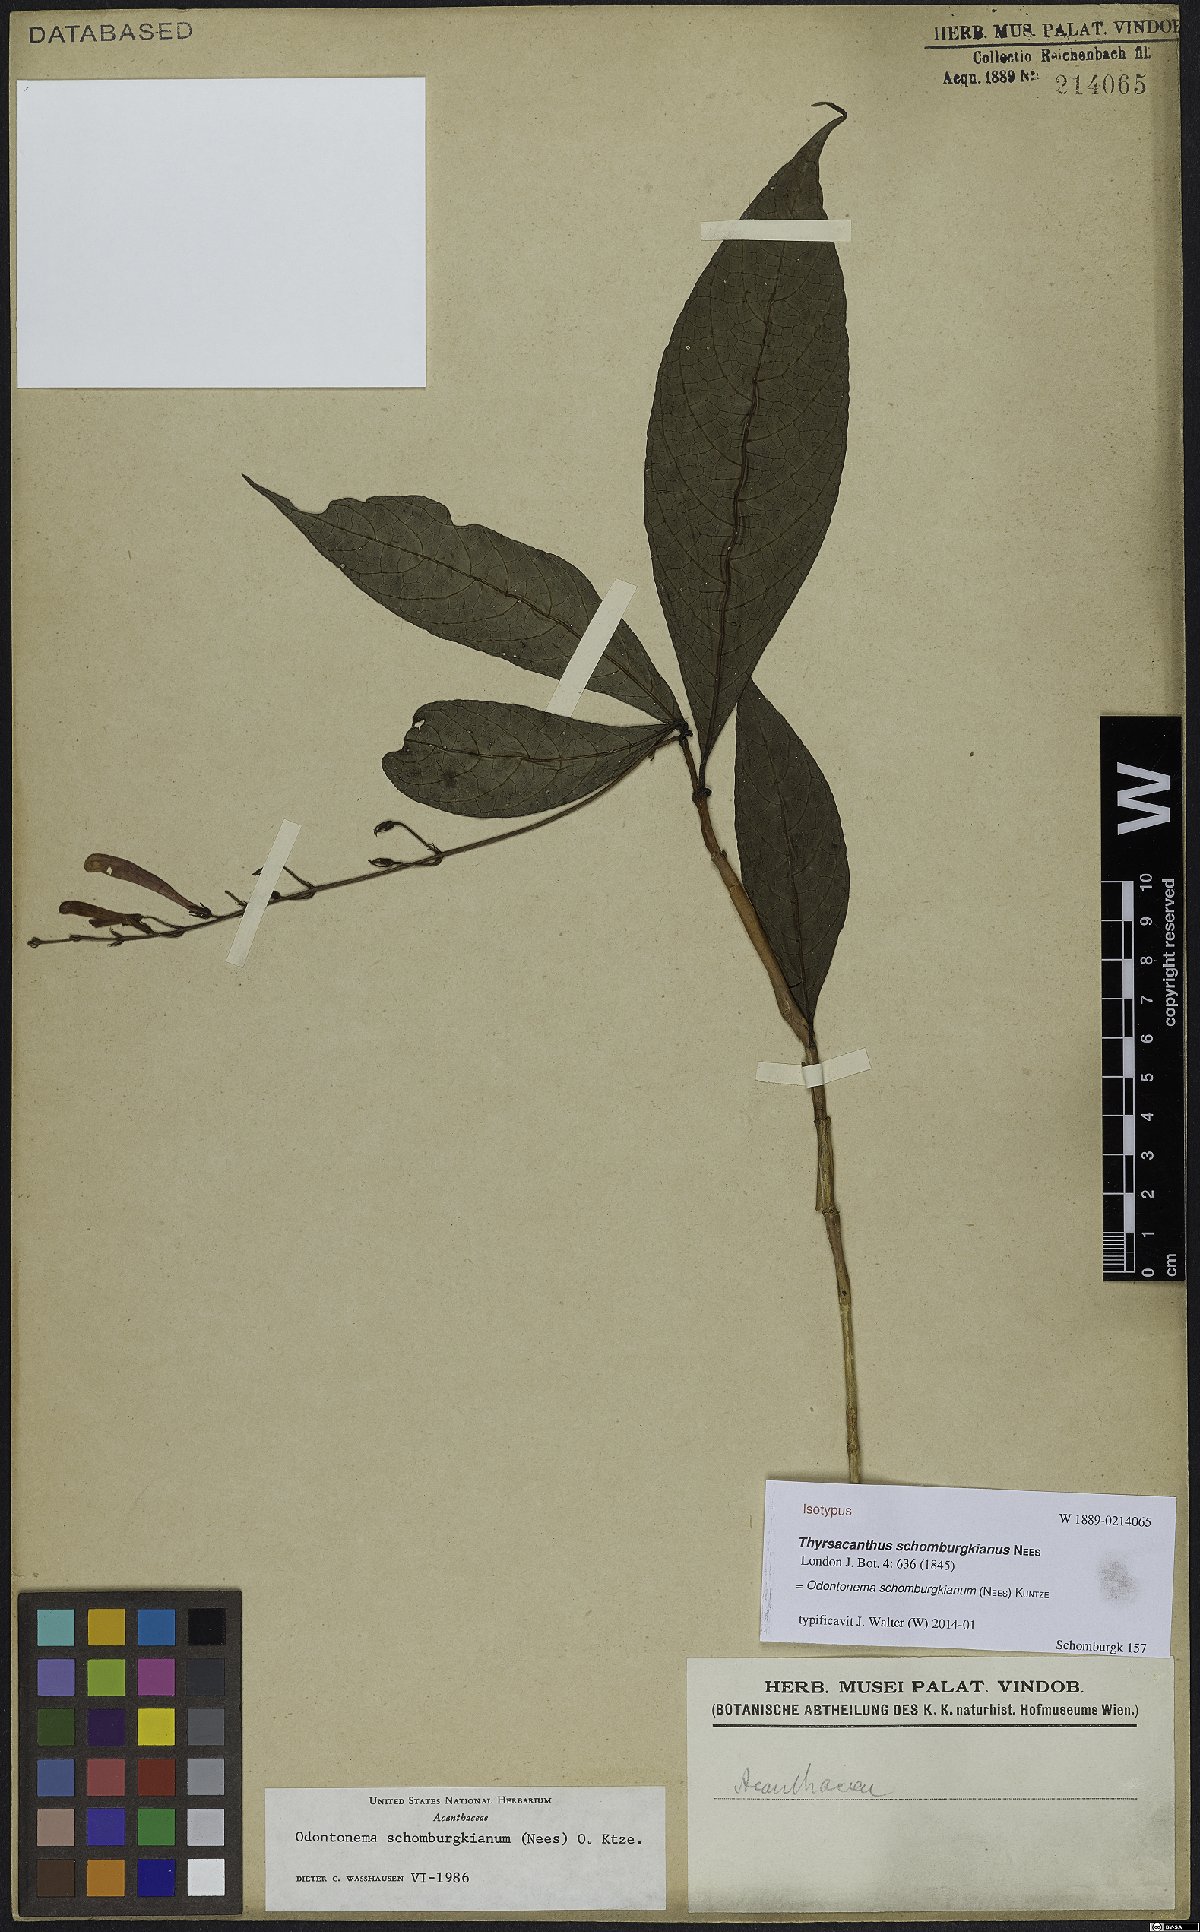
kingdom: Plantae
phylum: Tracheophyta
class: Magnoliopsida
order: Lamiales
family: Acanthaceae
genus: Odontonema
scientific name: Odontonema schomburgkianum
